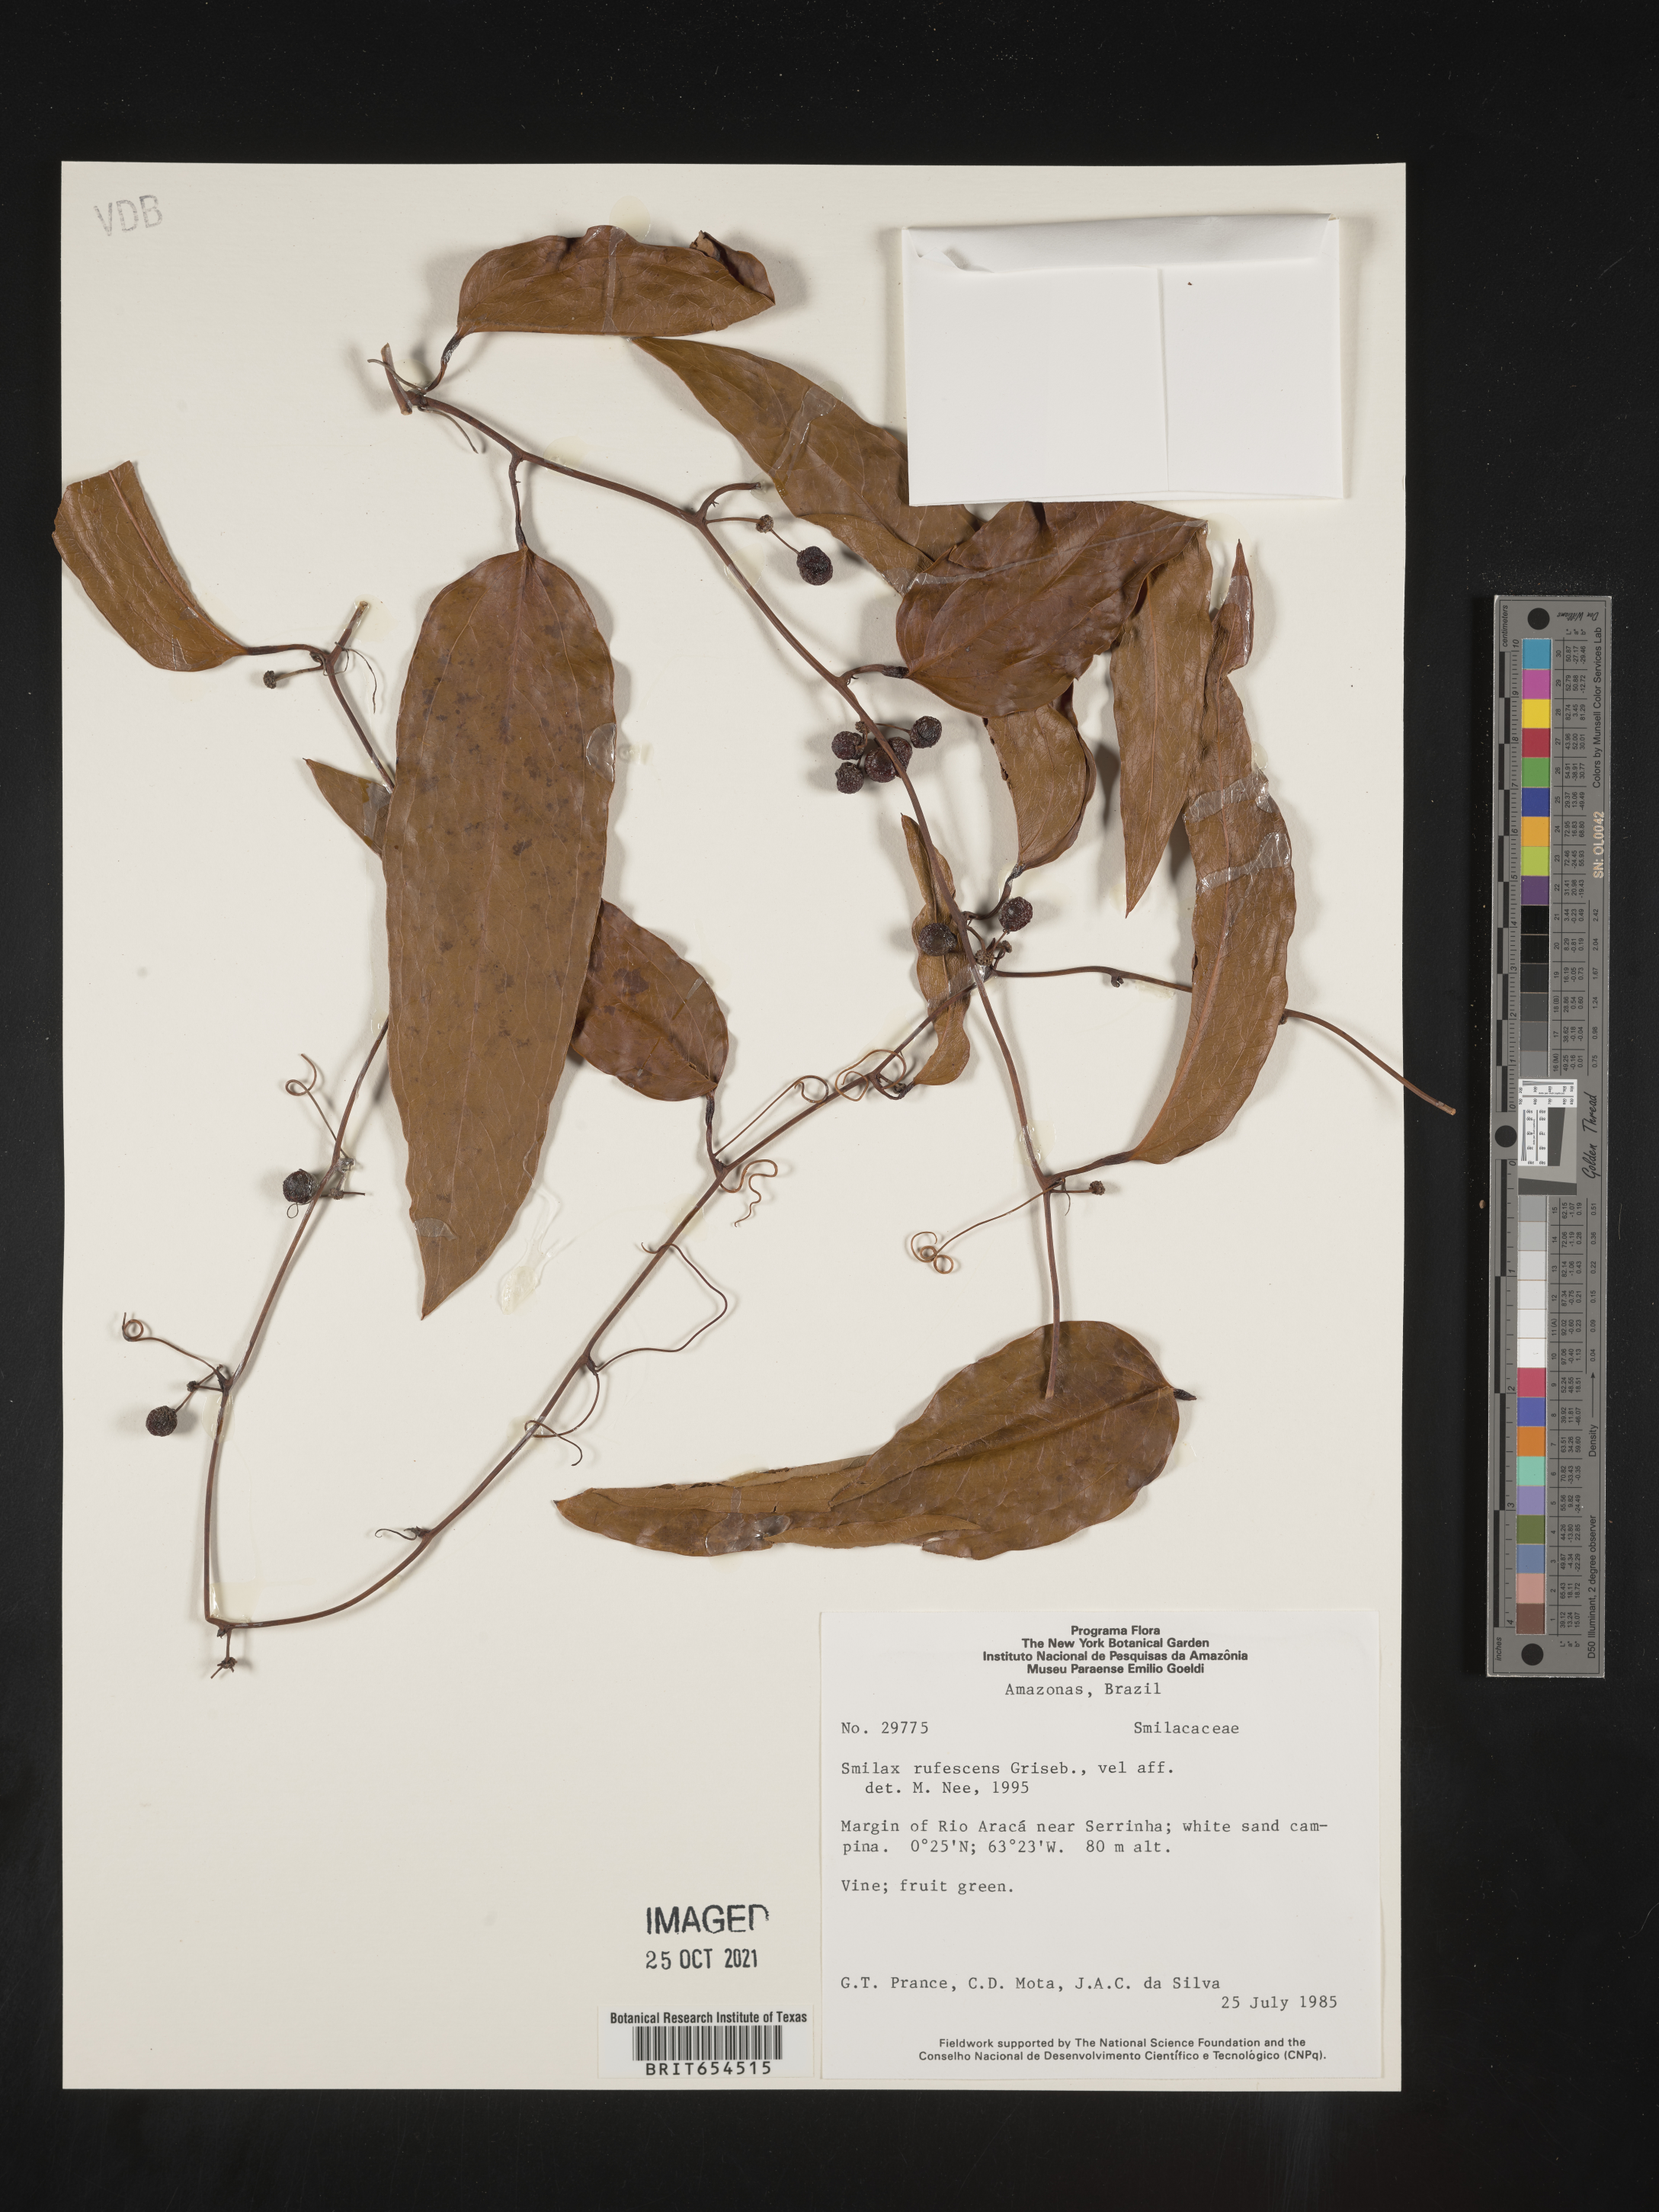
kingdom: Plantae
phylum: Tracheophyta
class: Liliopsida
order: Liliales
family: Smilacaceae
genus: Smilax
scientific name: Smilax
